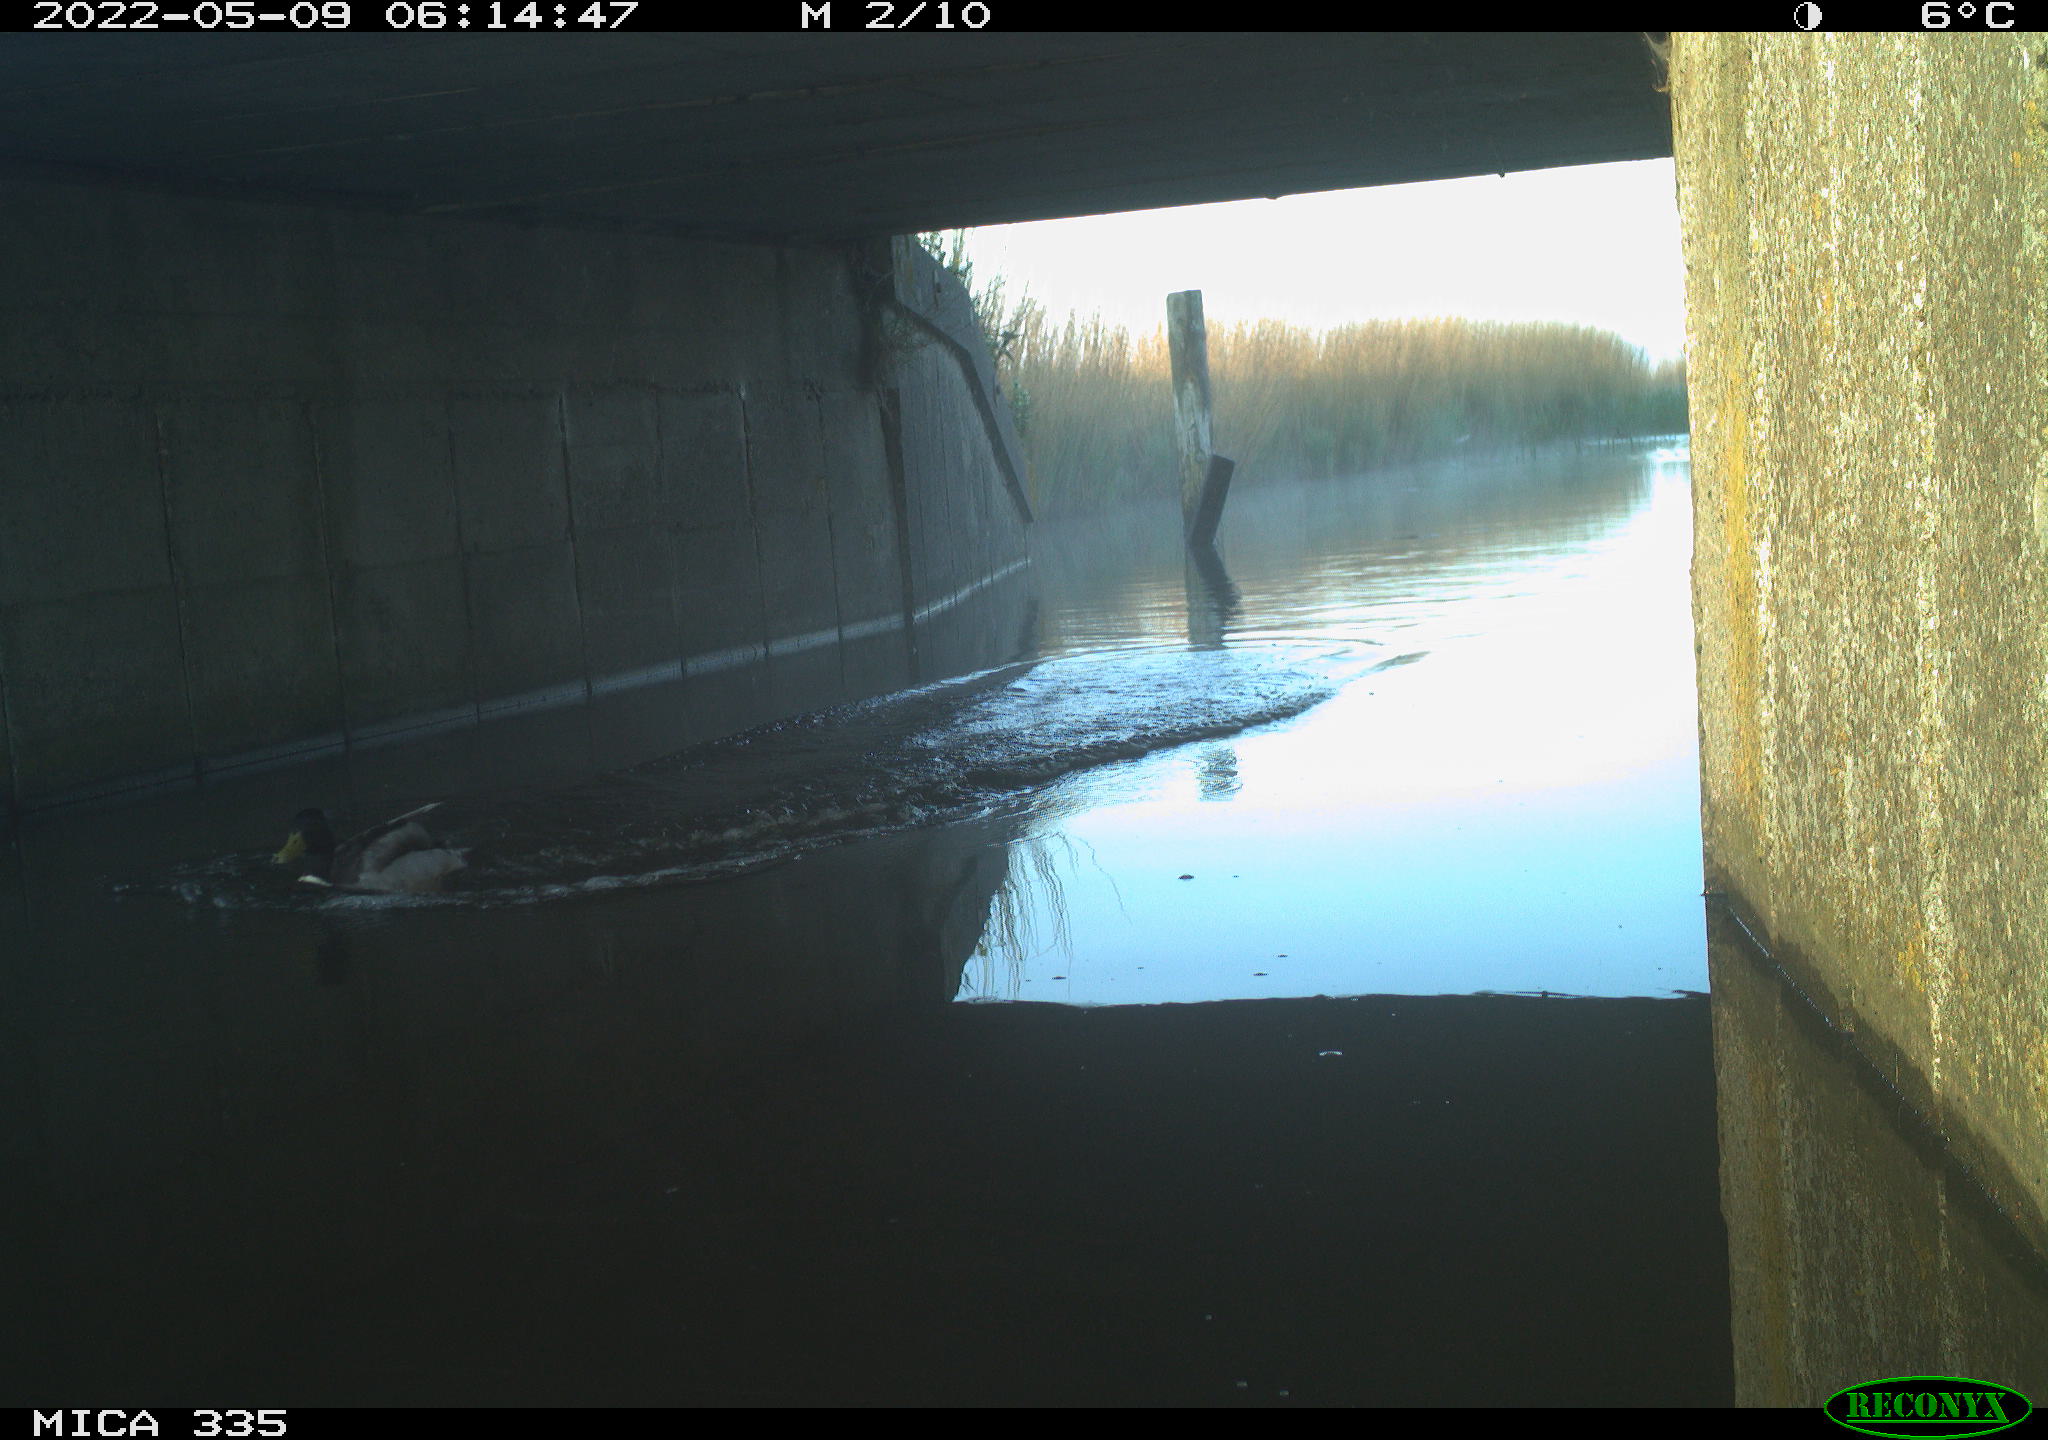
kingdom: Animalia
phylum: Chordata
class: Aves
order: Anseriformes
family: Anatidae
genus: Anas
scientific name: Anas platyrhynchos
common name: Mallard
